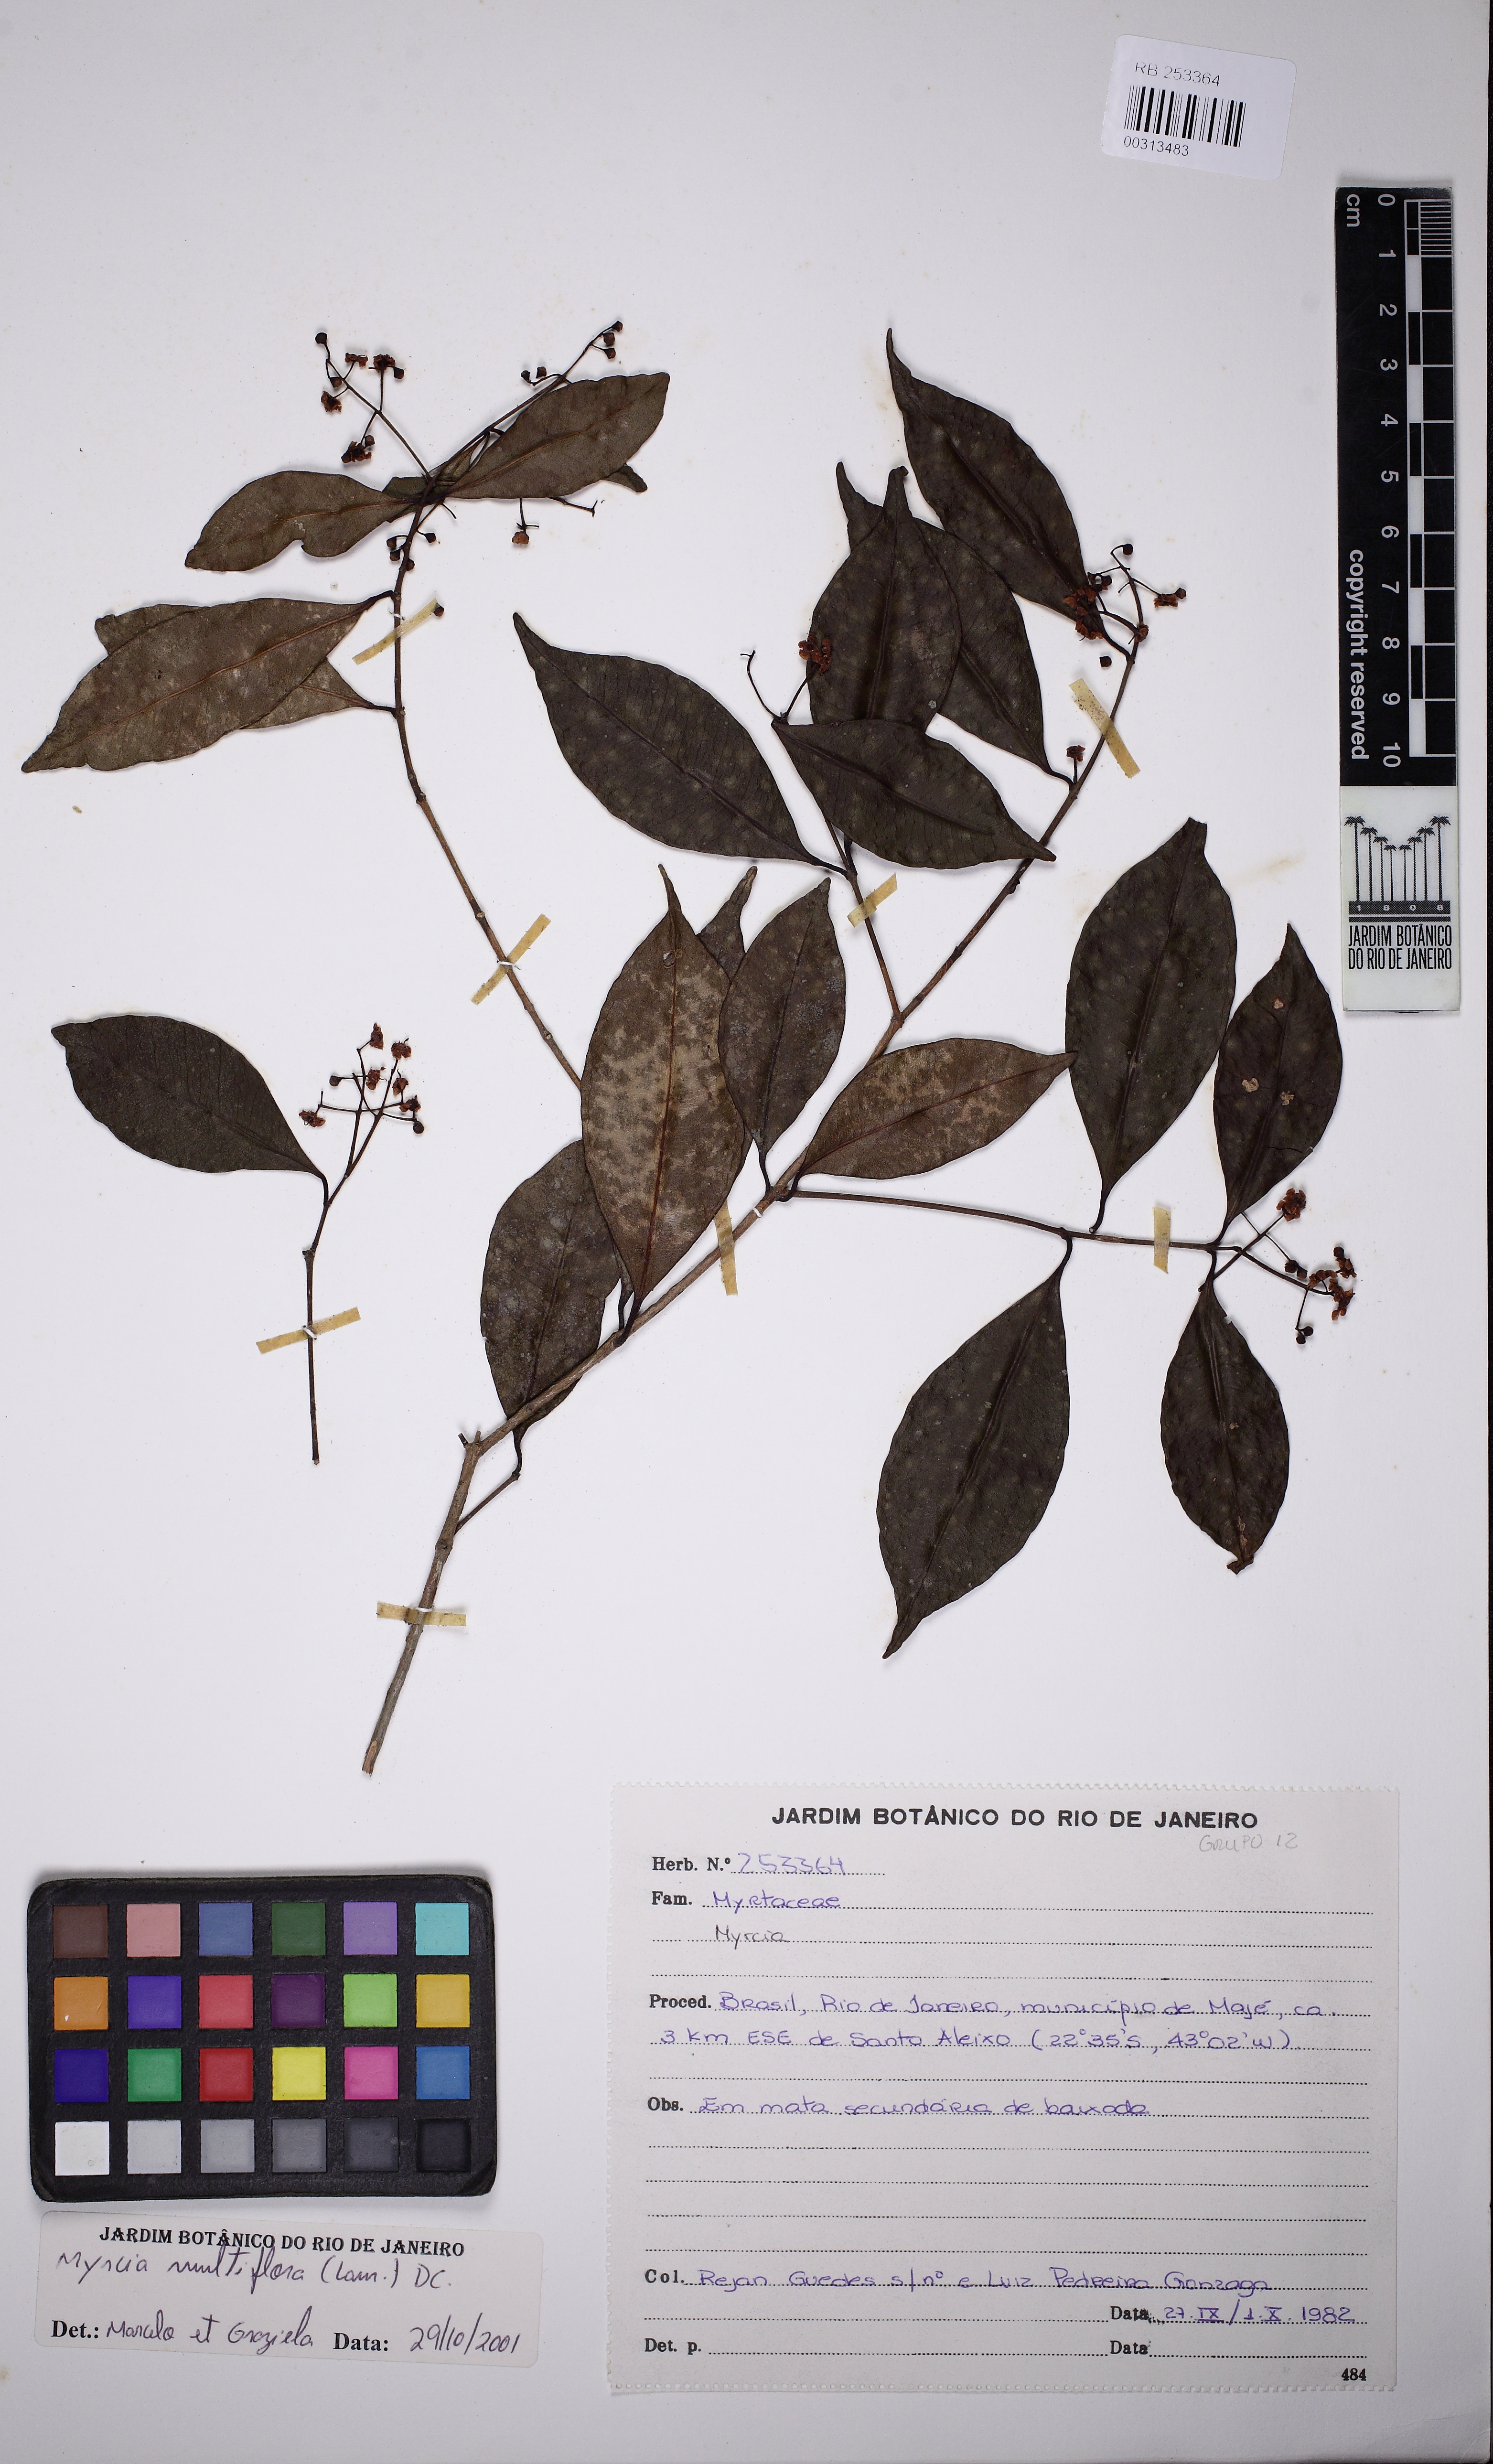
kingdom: Plantae
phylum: Tracheophyta
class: Magnoliopsida
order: Myrtales
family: Myrtaceae
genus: Myrcia
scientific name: Myrcia laxiflora
